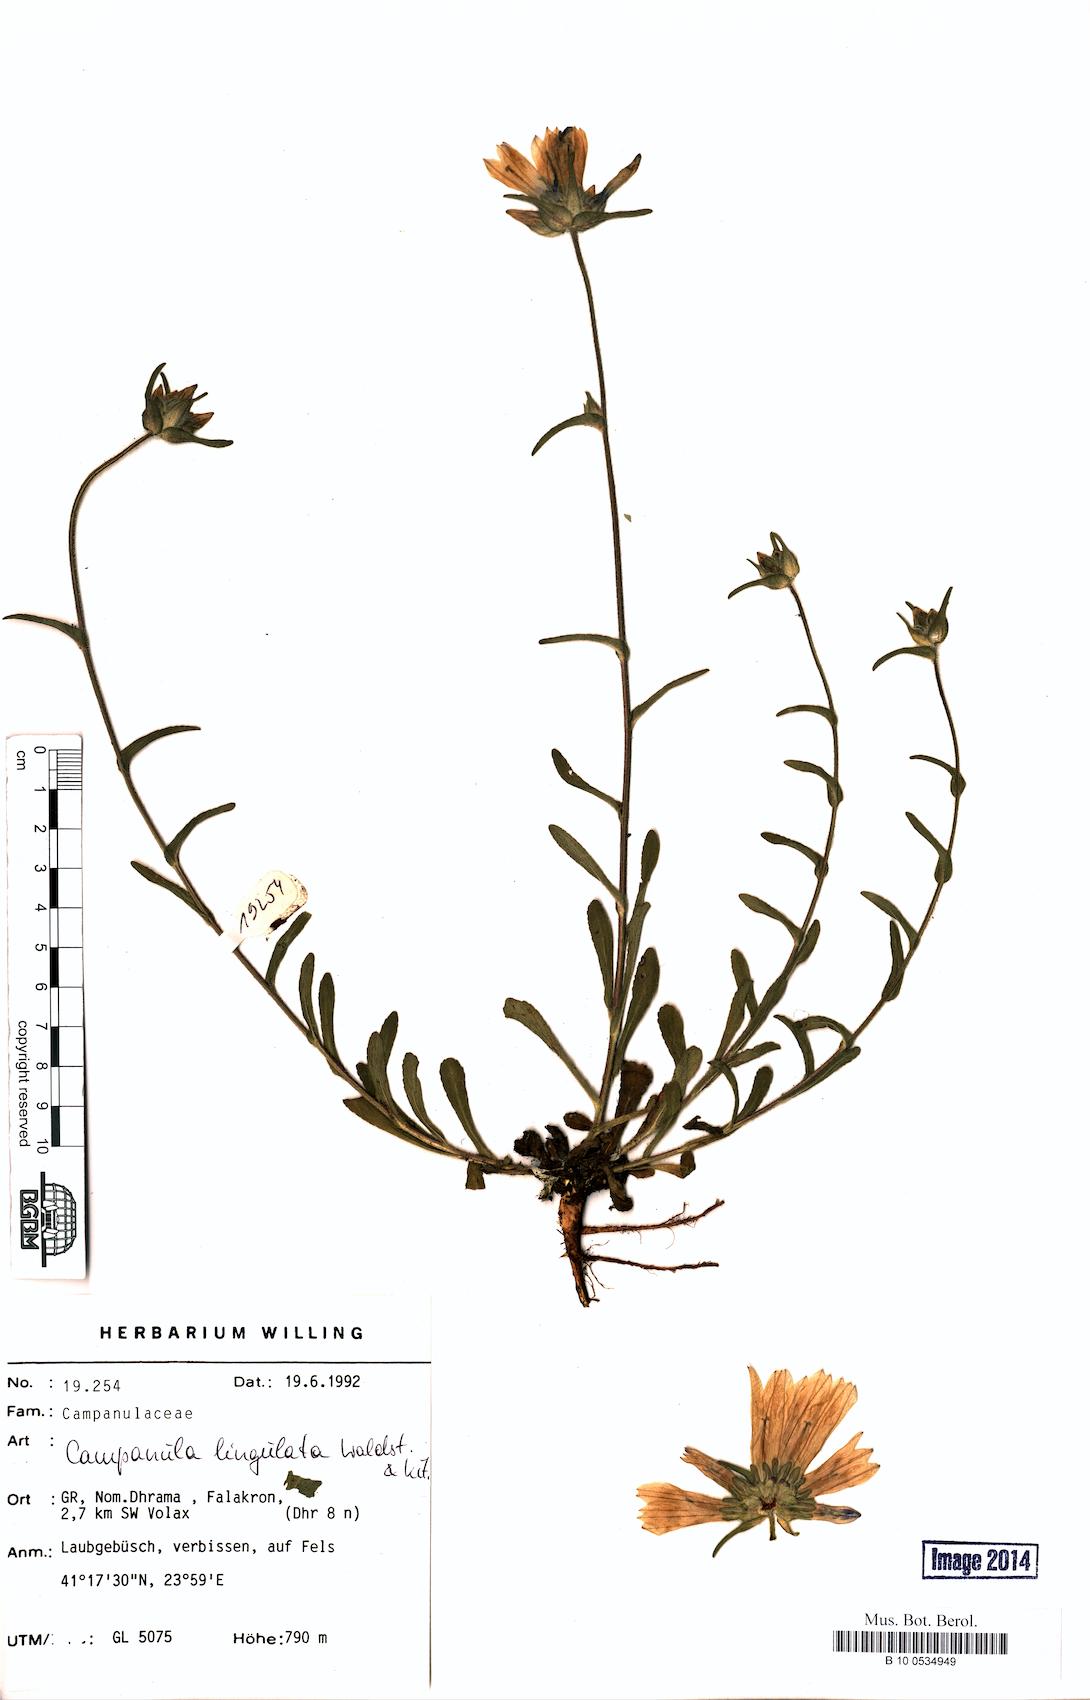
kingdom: Plantae
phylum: Tracheophyta
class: Magnoliopsida
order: Asterales
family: Campanulaceae
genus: Campanula
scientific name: Campanula lingulata
